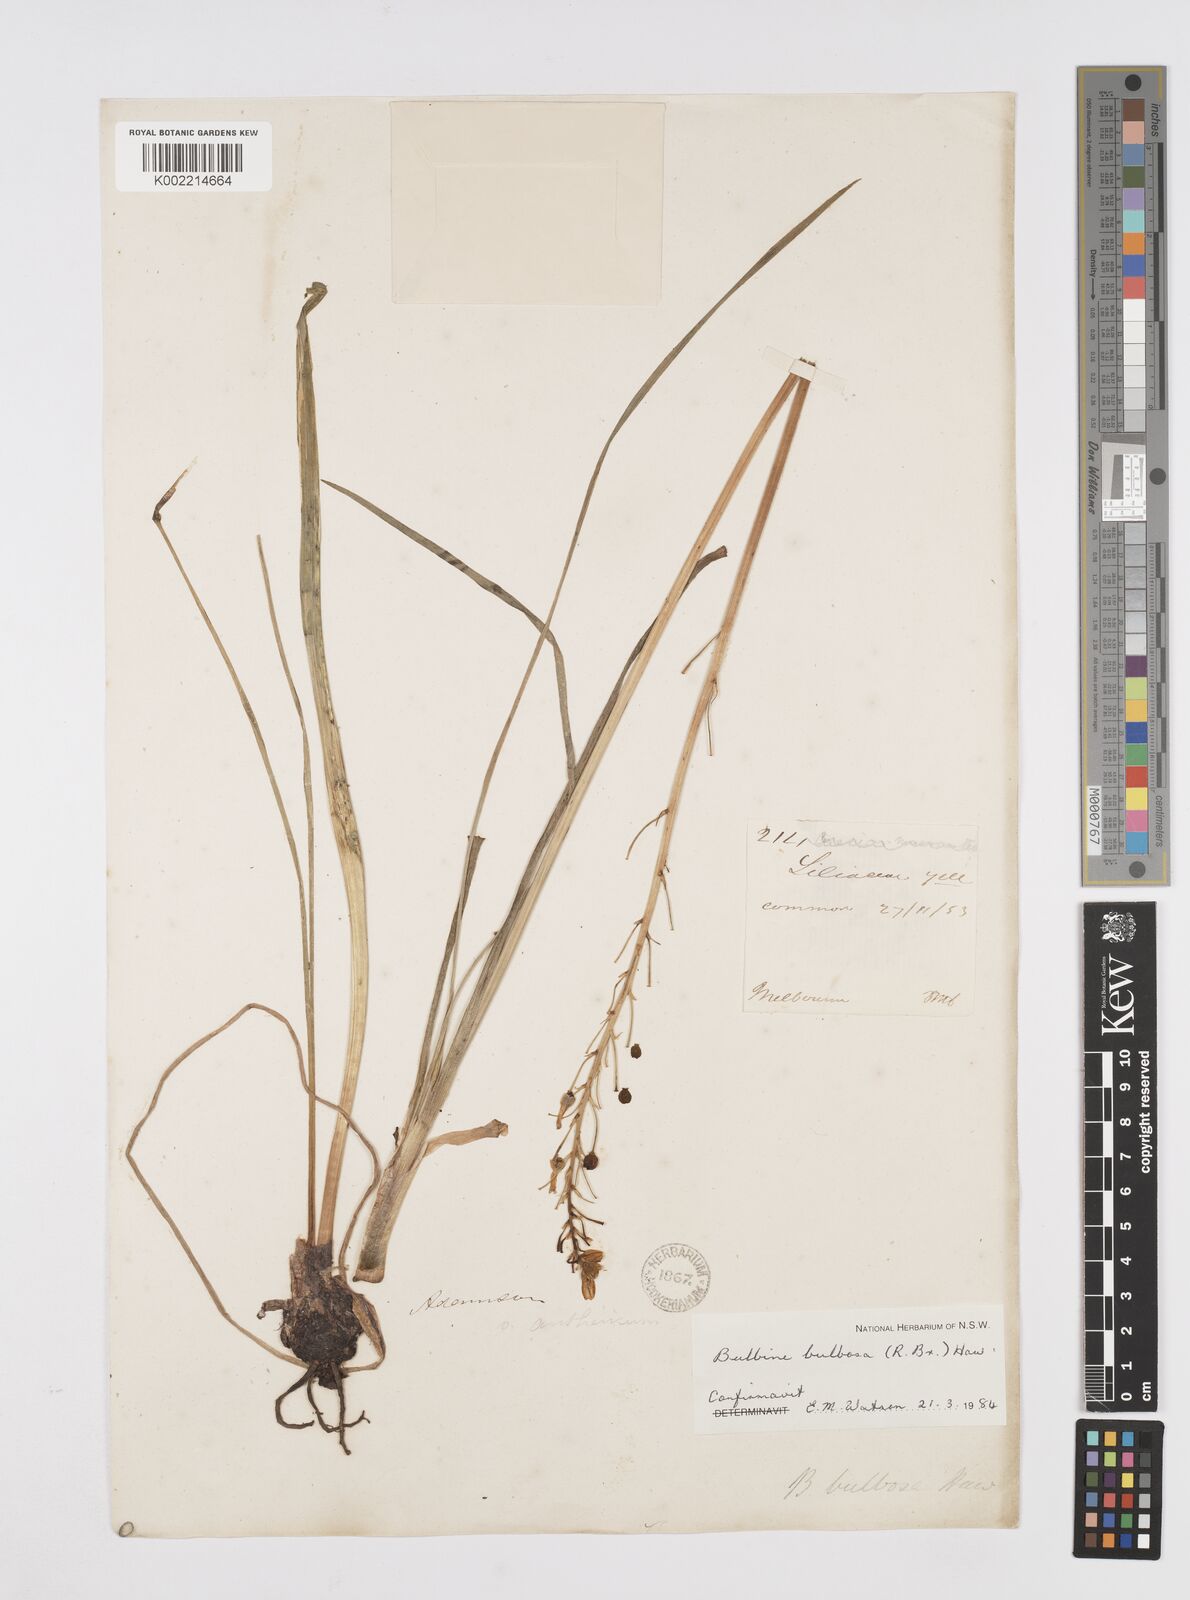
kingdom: Plantae
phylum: Tracheophyta
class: Liliopsida
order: Asparagales
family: Asphodelaceae
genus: Bulbine
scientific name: Bulbine bulbosa
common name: Golden-lily
